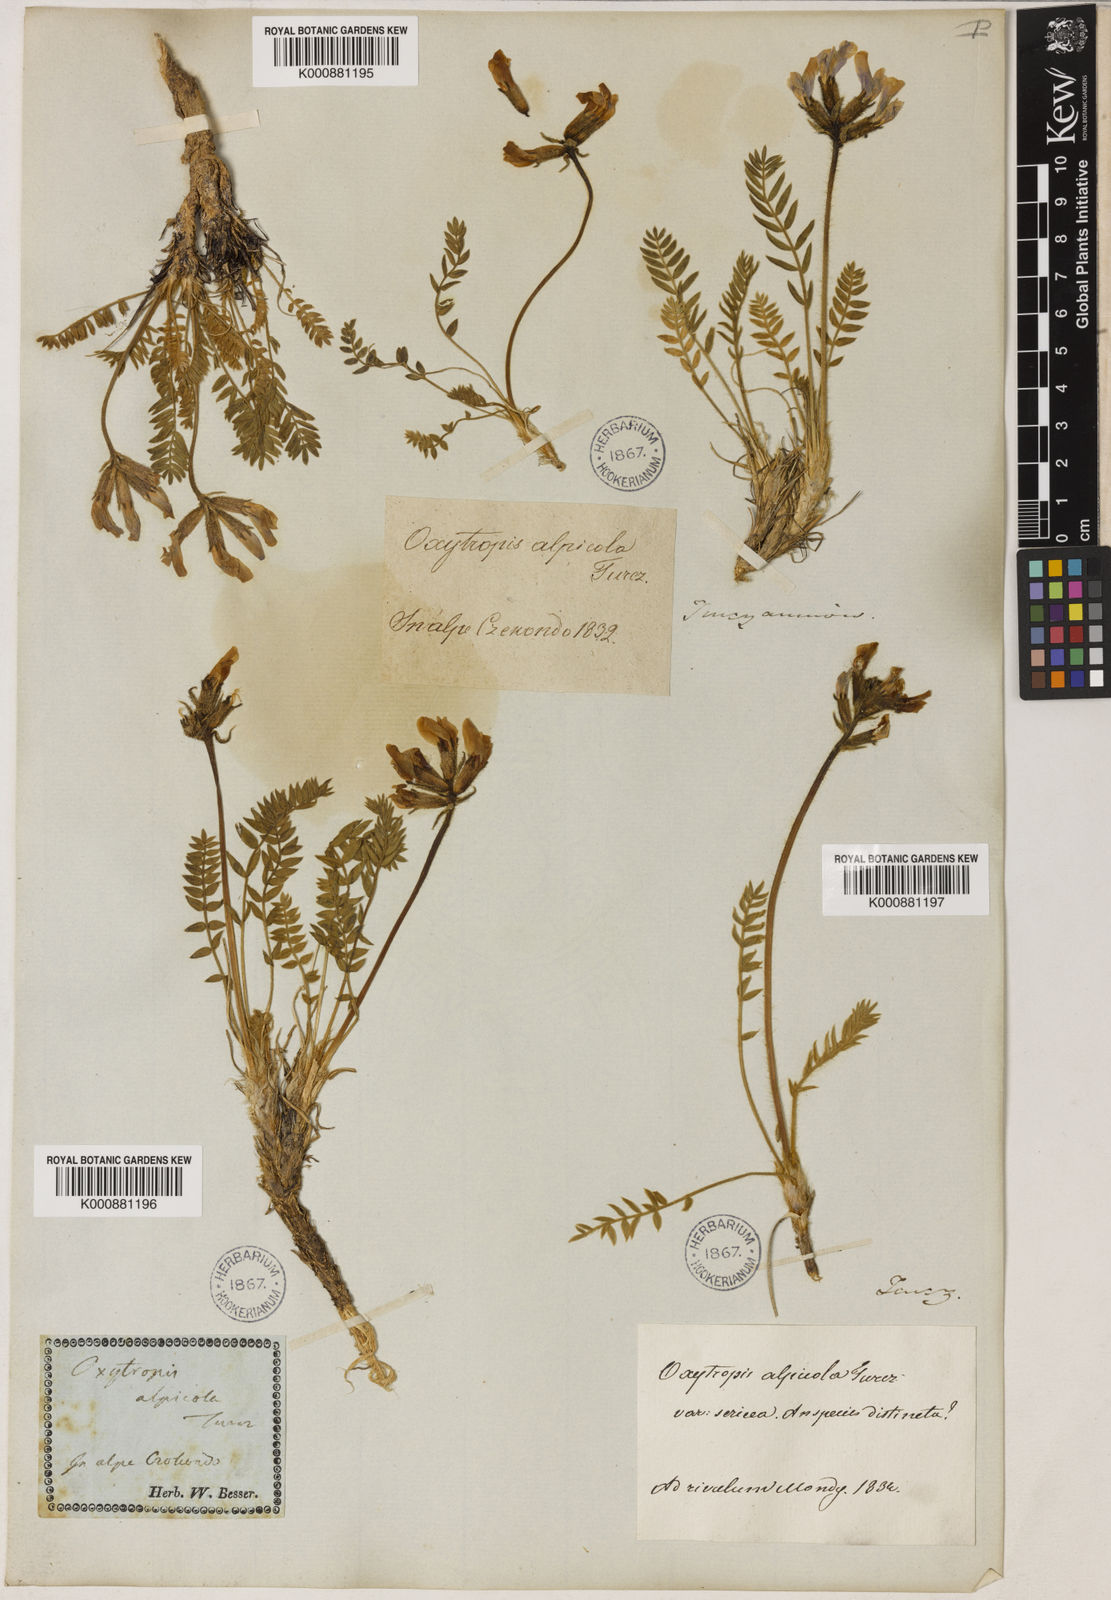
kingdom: Plantae
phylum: Tracheophyta
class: Magnoliopsida
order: Fabales
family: Fabaceae
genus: Oxytropis
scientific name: Oxytropis alpicola
